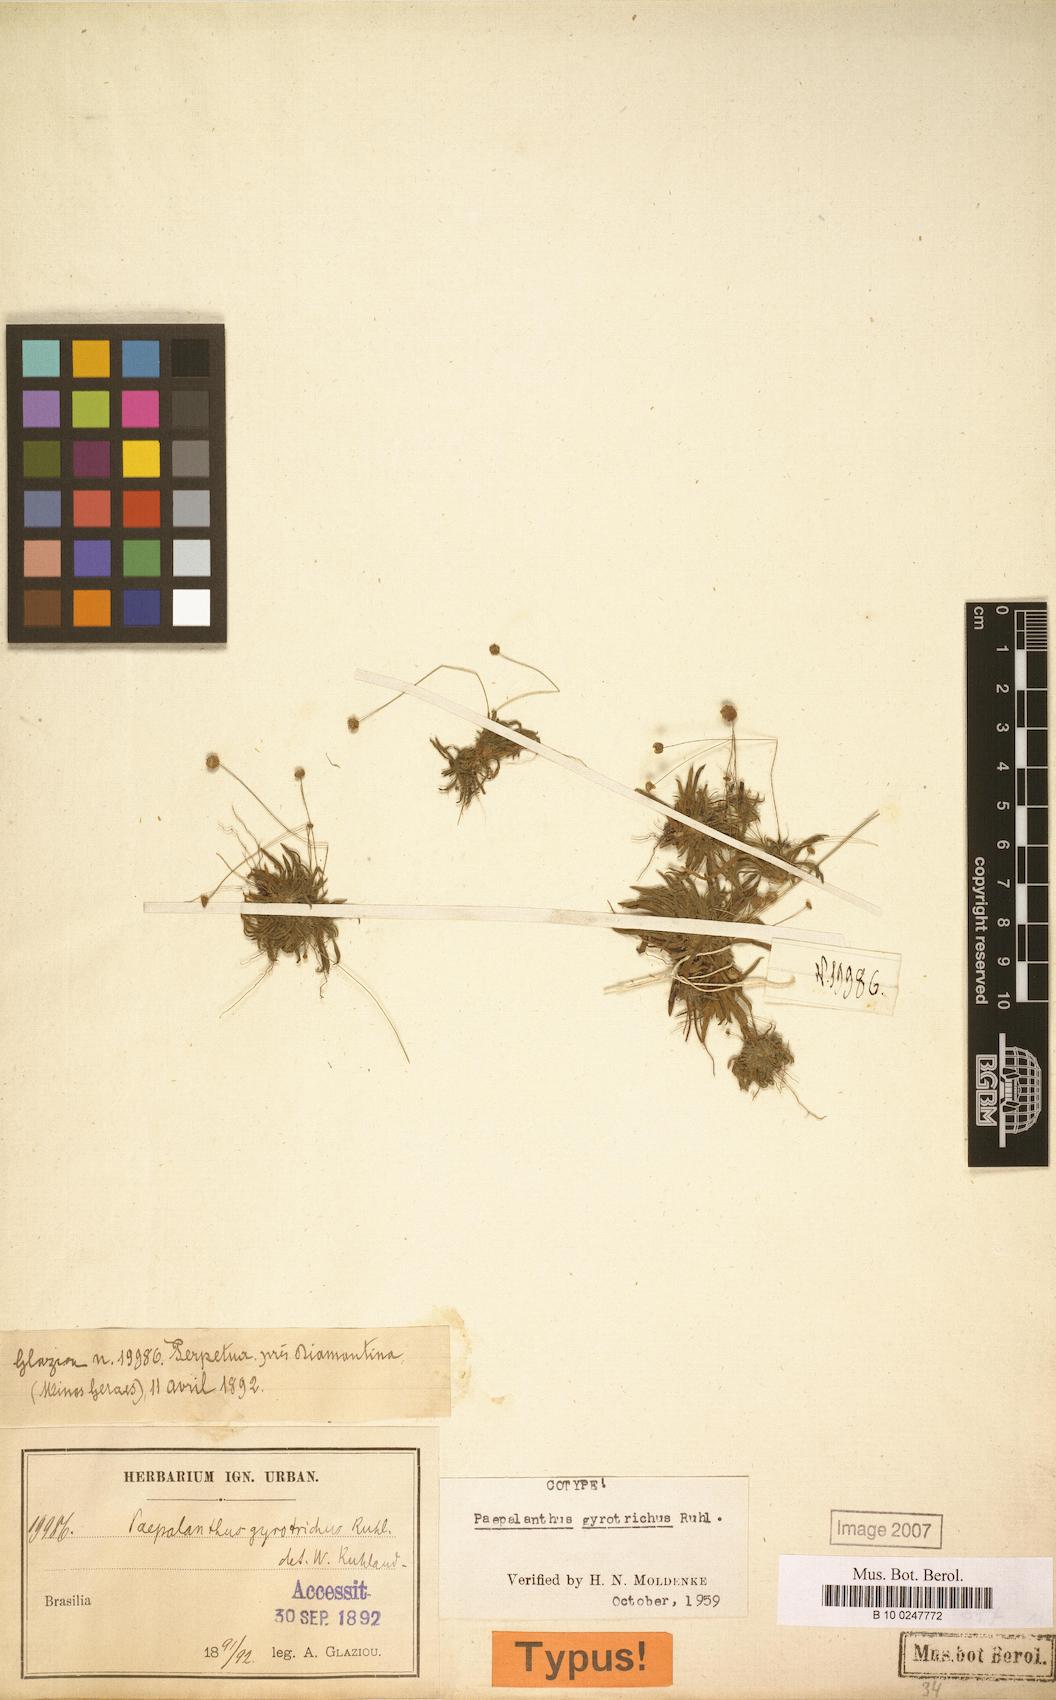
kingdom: Plantae
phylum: Tracheophyta
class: Liliopsida
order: Poales
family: Eriocaulaceae
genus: Paepalanthus
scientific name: Paepalanthus gyrotrichus
